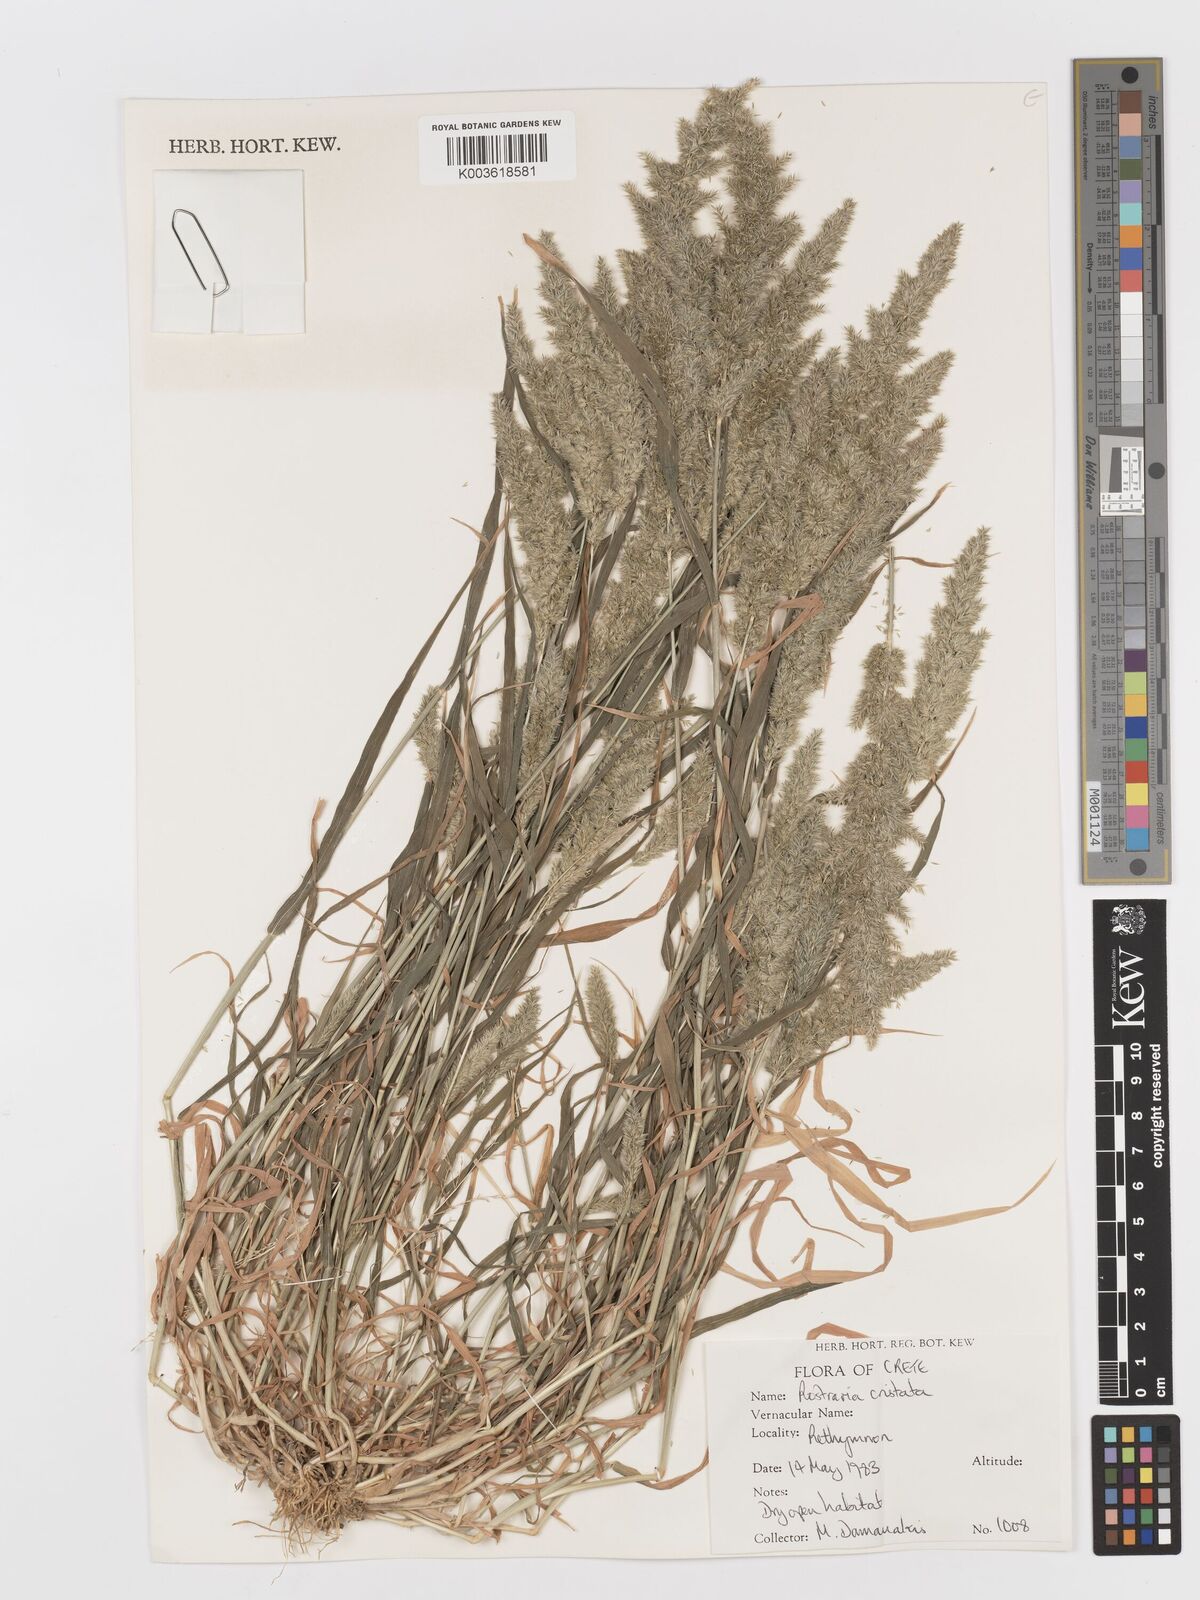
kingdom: Plantae
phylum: Tracheophyta
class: Liliopsida
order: Poales
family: Poaceae
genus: Rostraria
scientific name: Rostraria cristata
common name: Mediterranean hair-grass
